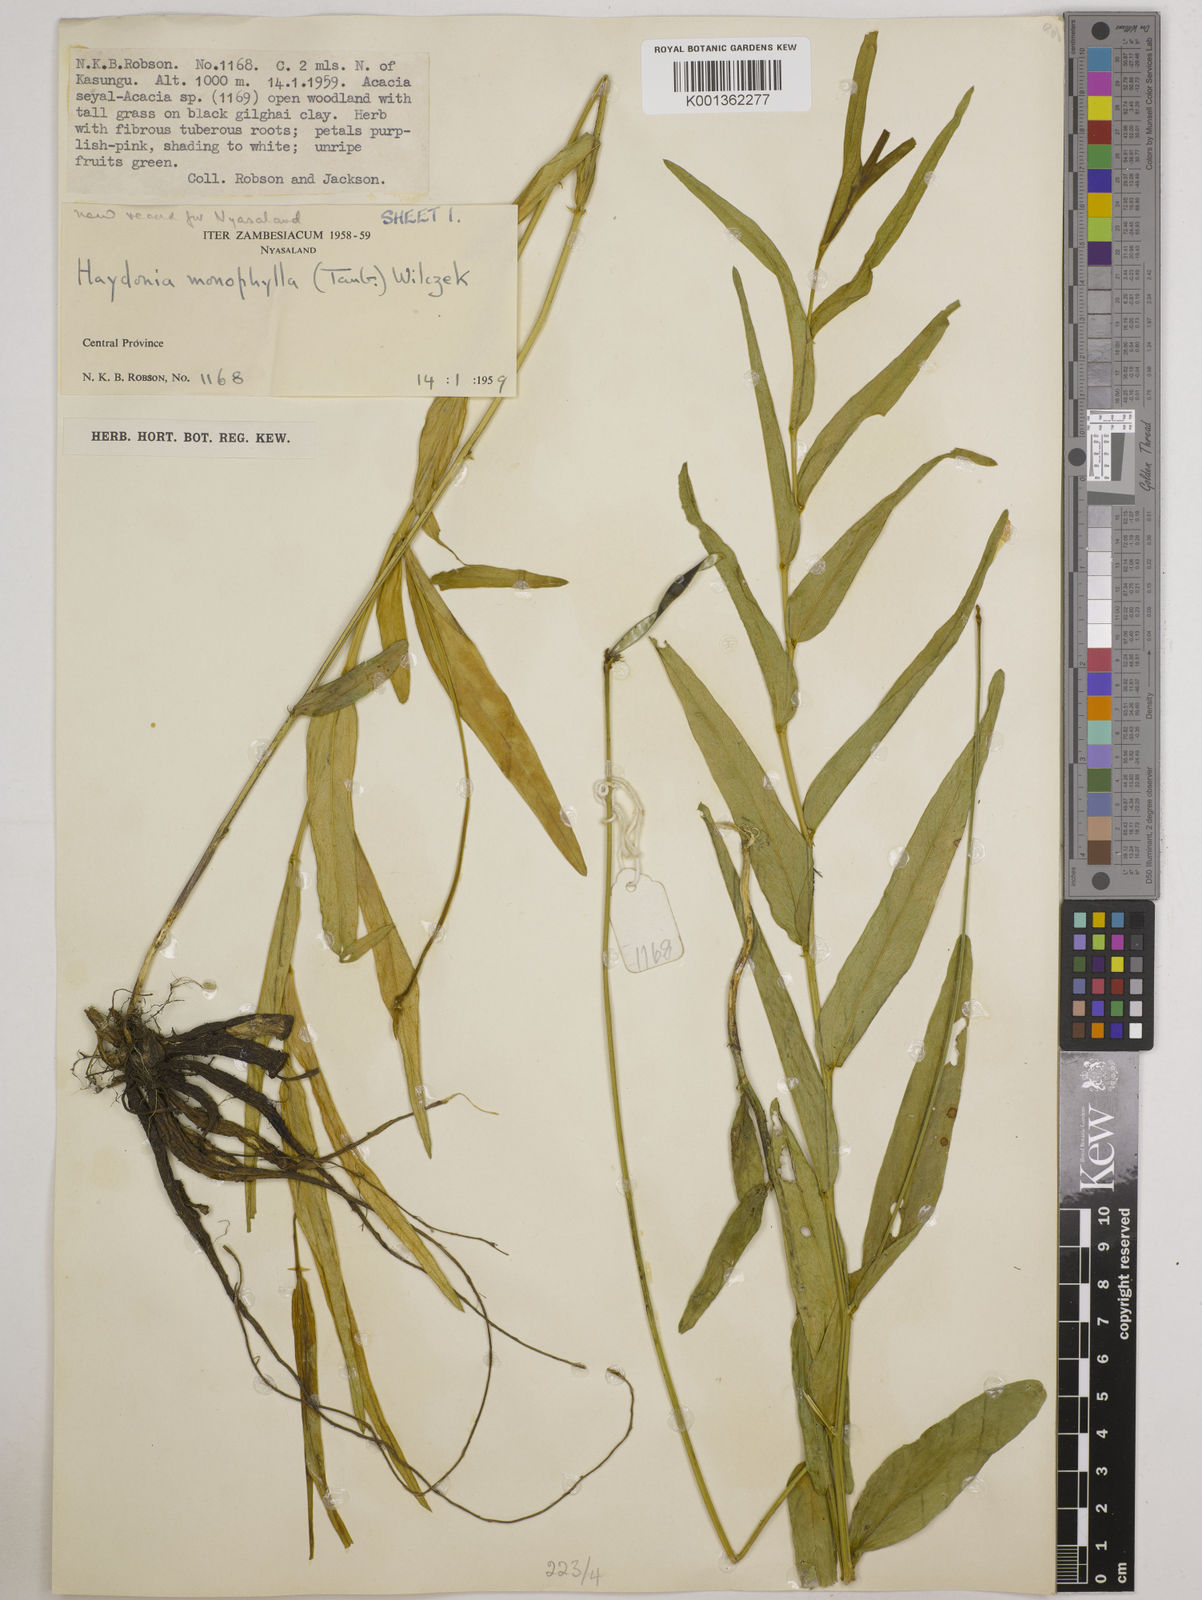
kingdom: Plantae
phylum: Tracheophyta
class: Magnoliopsida
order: Fabales
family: Fabaceae
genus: Vigna
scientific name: Vigna monophylla
